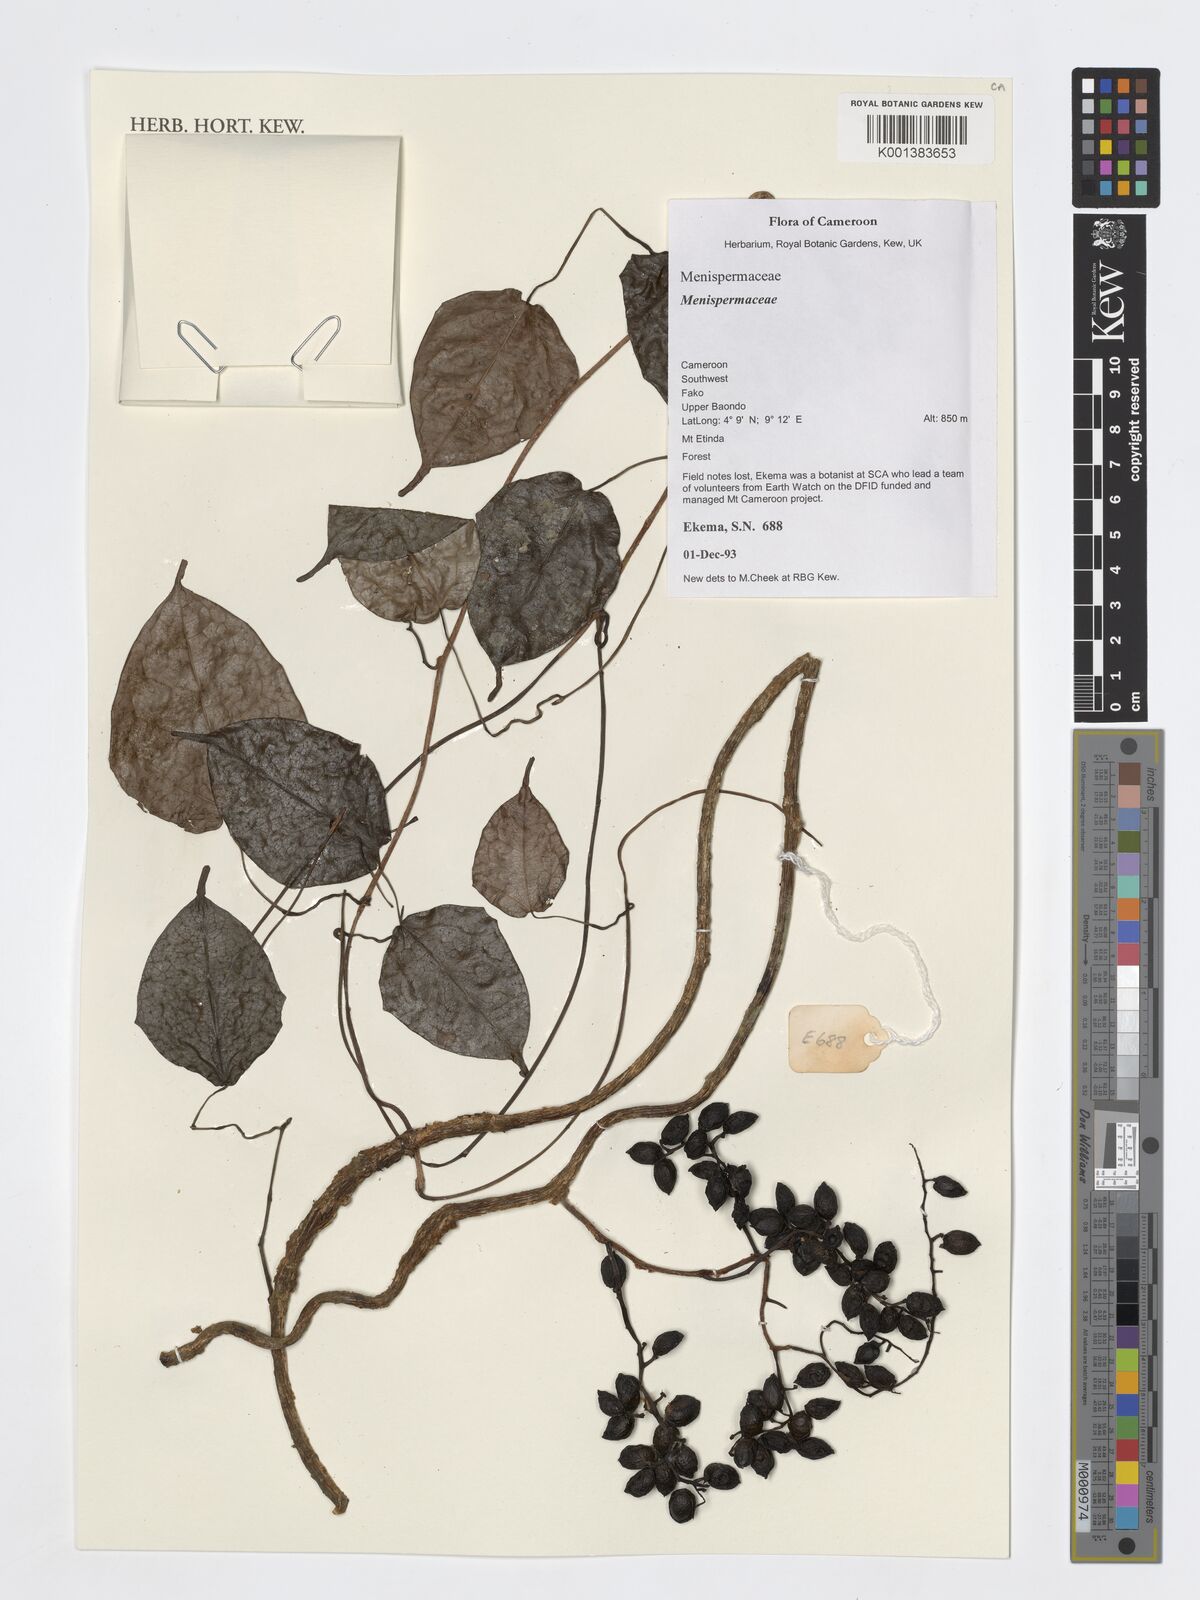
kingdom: Plantae
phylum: Tracheophyta
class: Magnoliopsida
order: Ranunculales
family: Menispermaceae
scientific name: Menispermaceae
